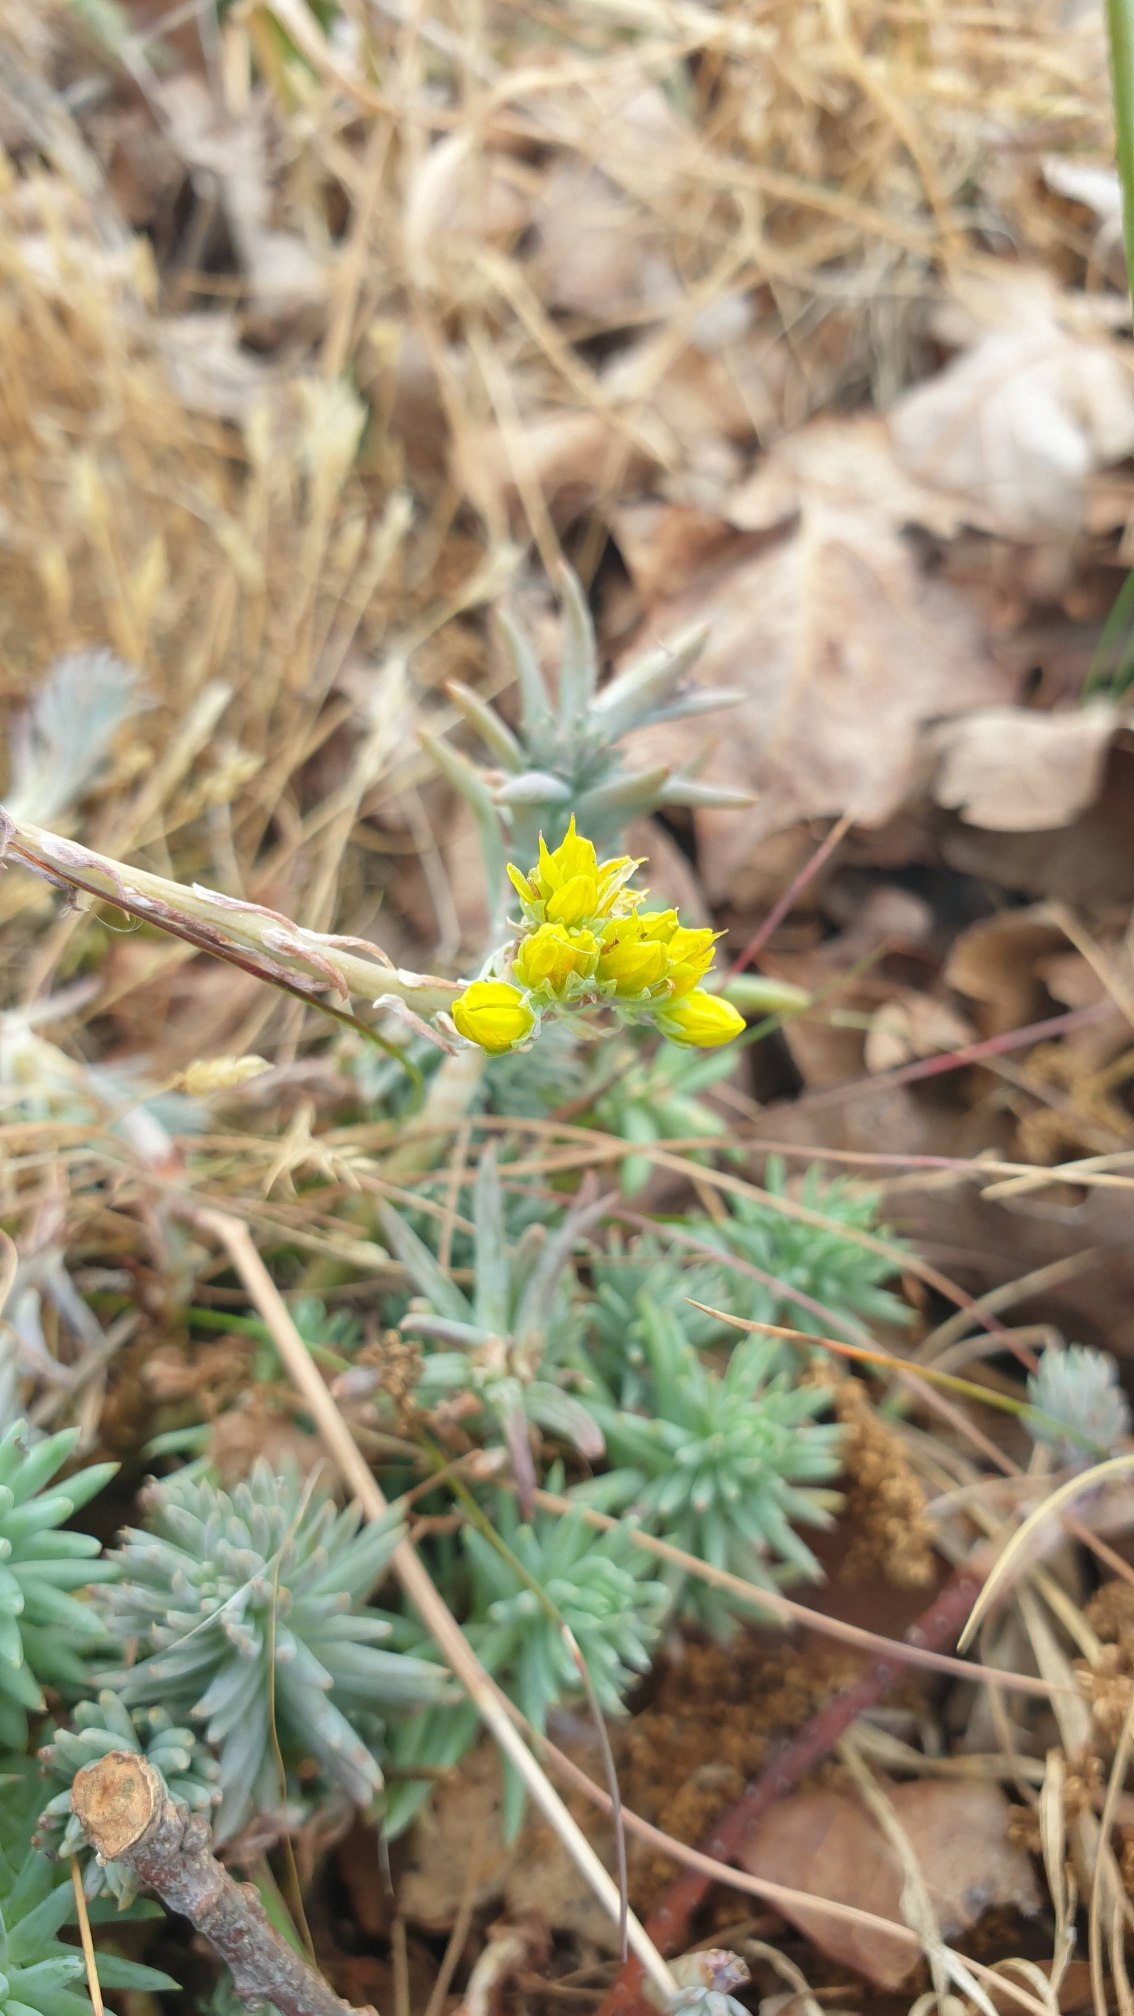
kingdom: Plantae
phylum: Tracheophyta
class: Magnoliopsida
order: Saxifragales
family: Crassulaceae
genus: Petrosedum
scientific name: Petrosedum rupestre
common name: Bjerg-stenurt
